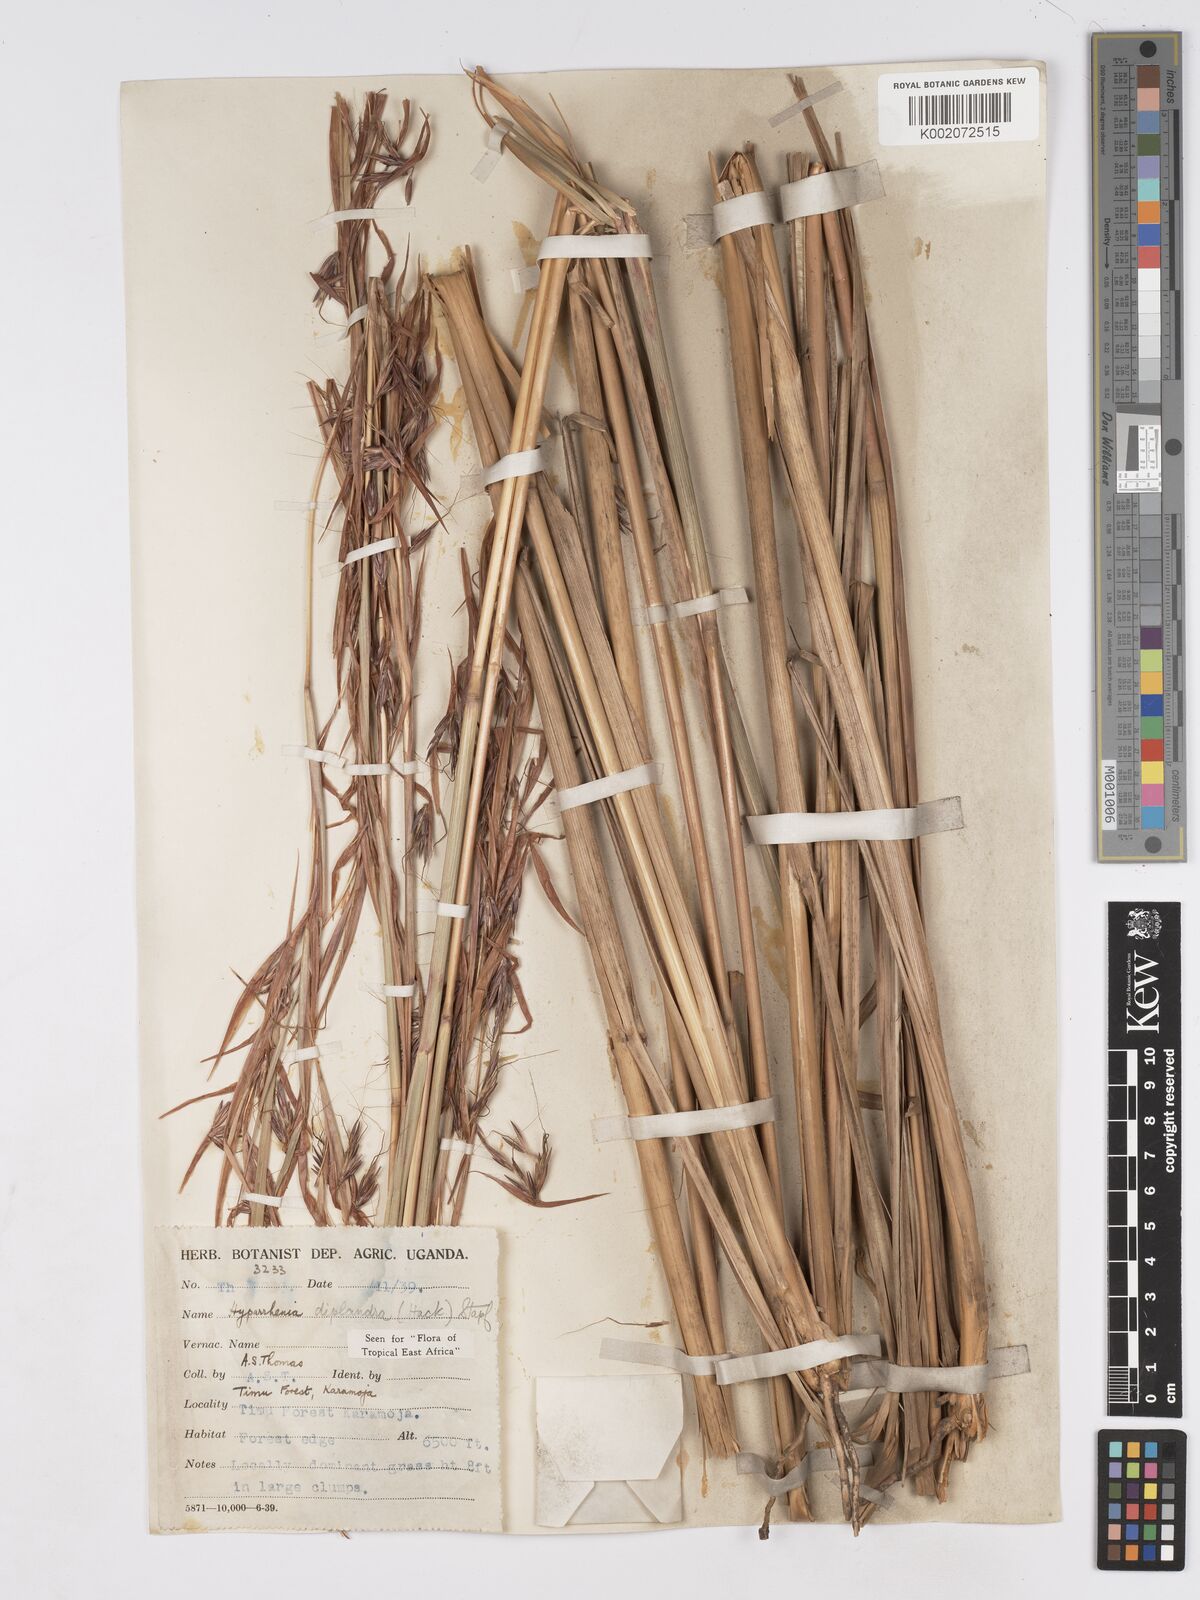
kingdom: Plantae
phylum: Tracheophyta
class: Liliopsida
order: Poales
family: Poaceae
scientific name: Poaceae
